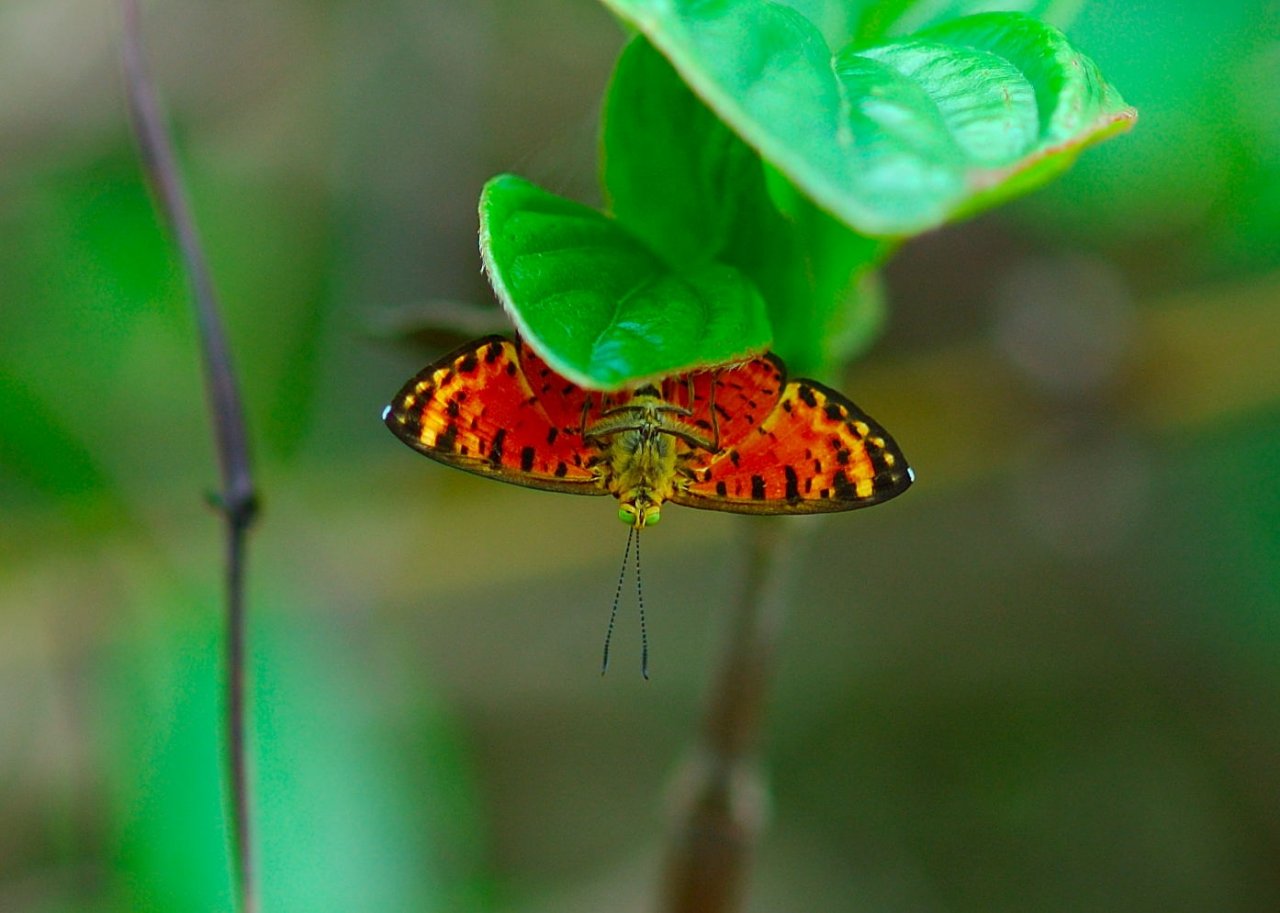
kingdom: Animalia
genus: Symmachia
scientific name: Symmachia xypete
